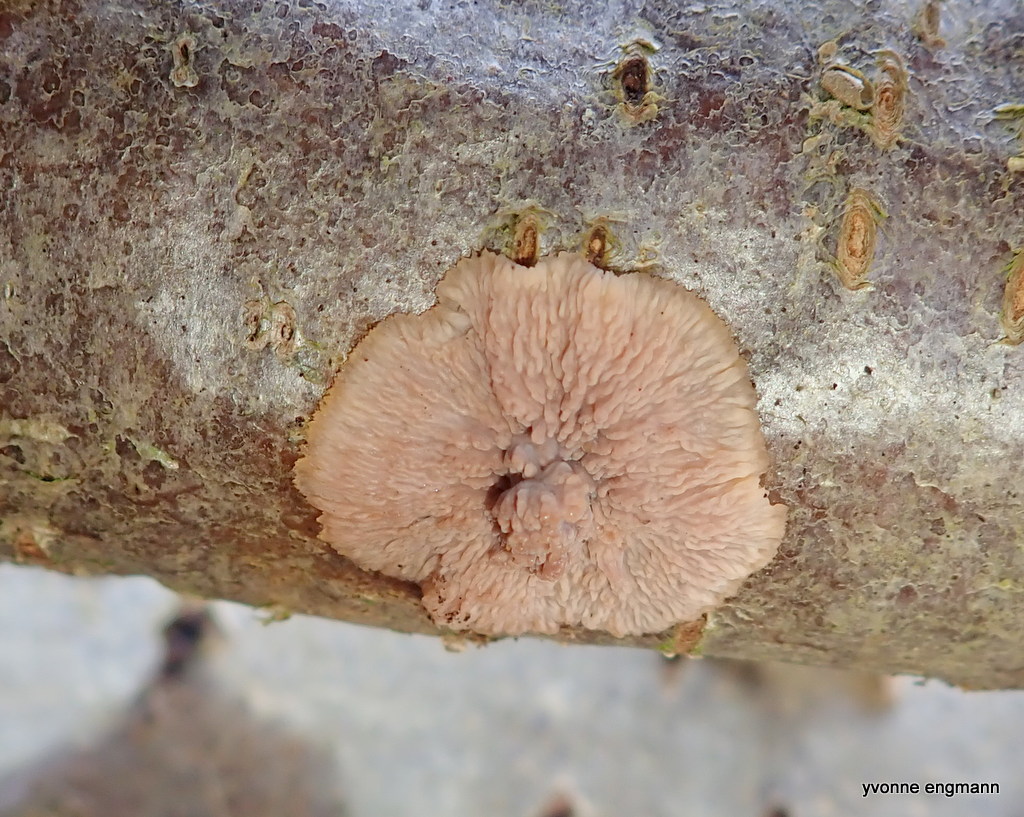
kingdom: Fungi
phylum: Basidiomycota
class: Agaricomycetes
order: Polyporales
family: Meruliaceae
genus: Phlebia
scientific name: Phlebia radiata
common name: stråle-åresvamp
